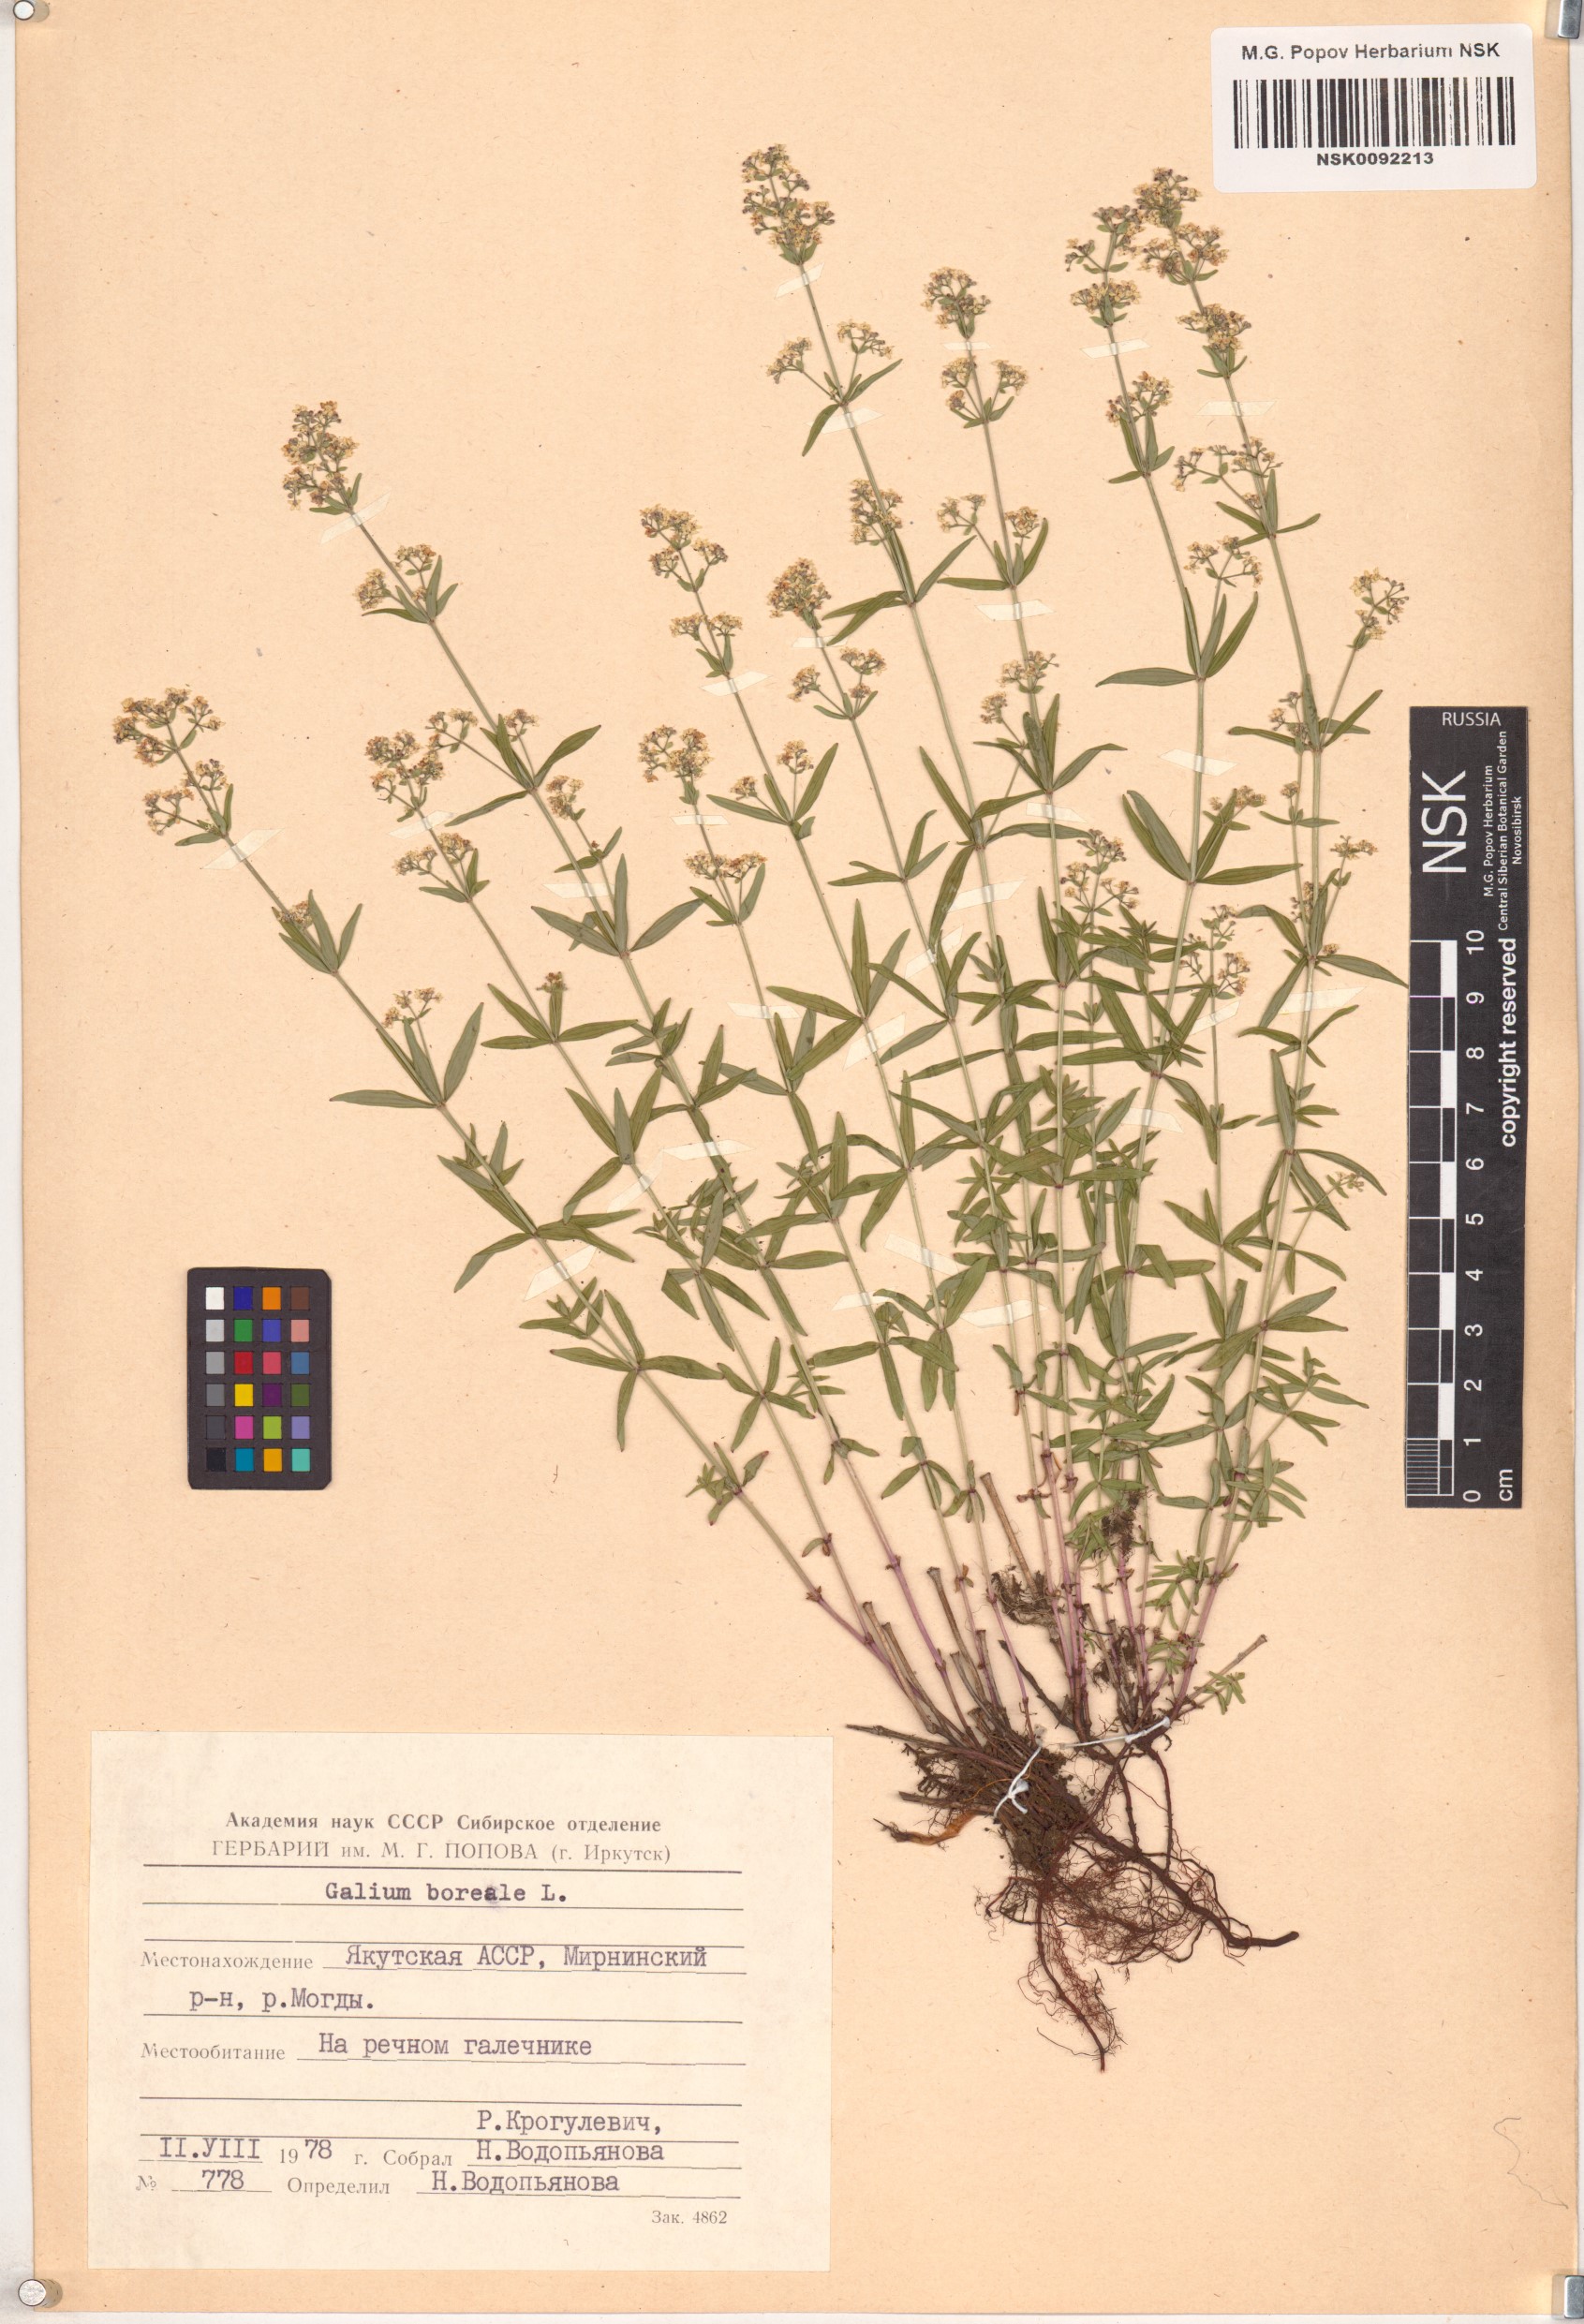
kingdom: Plantae
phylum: Tracheophyta
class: Magnoliopsida
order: Gentianales
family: Rubiaceae
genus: Galium
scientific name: Galium boreale
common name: Northern bedstraw
